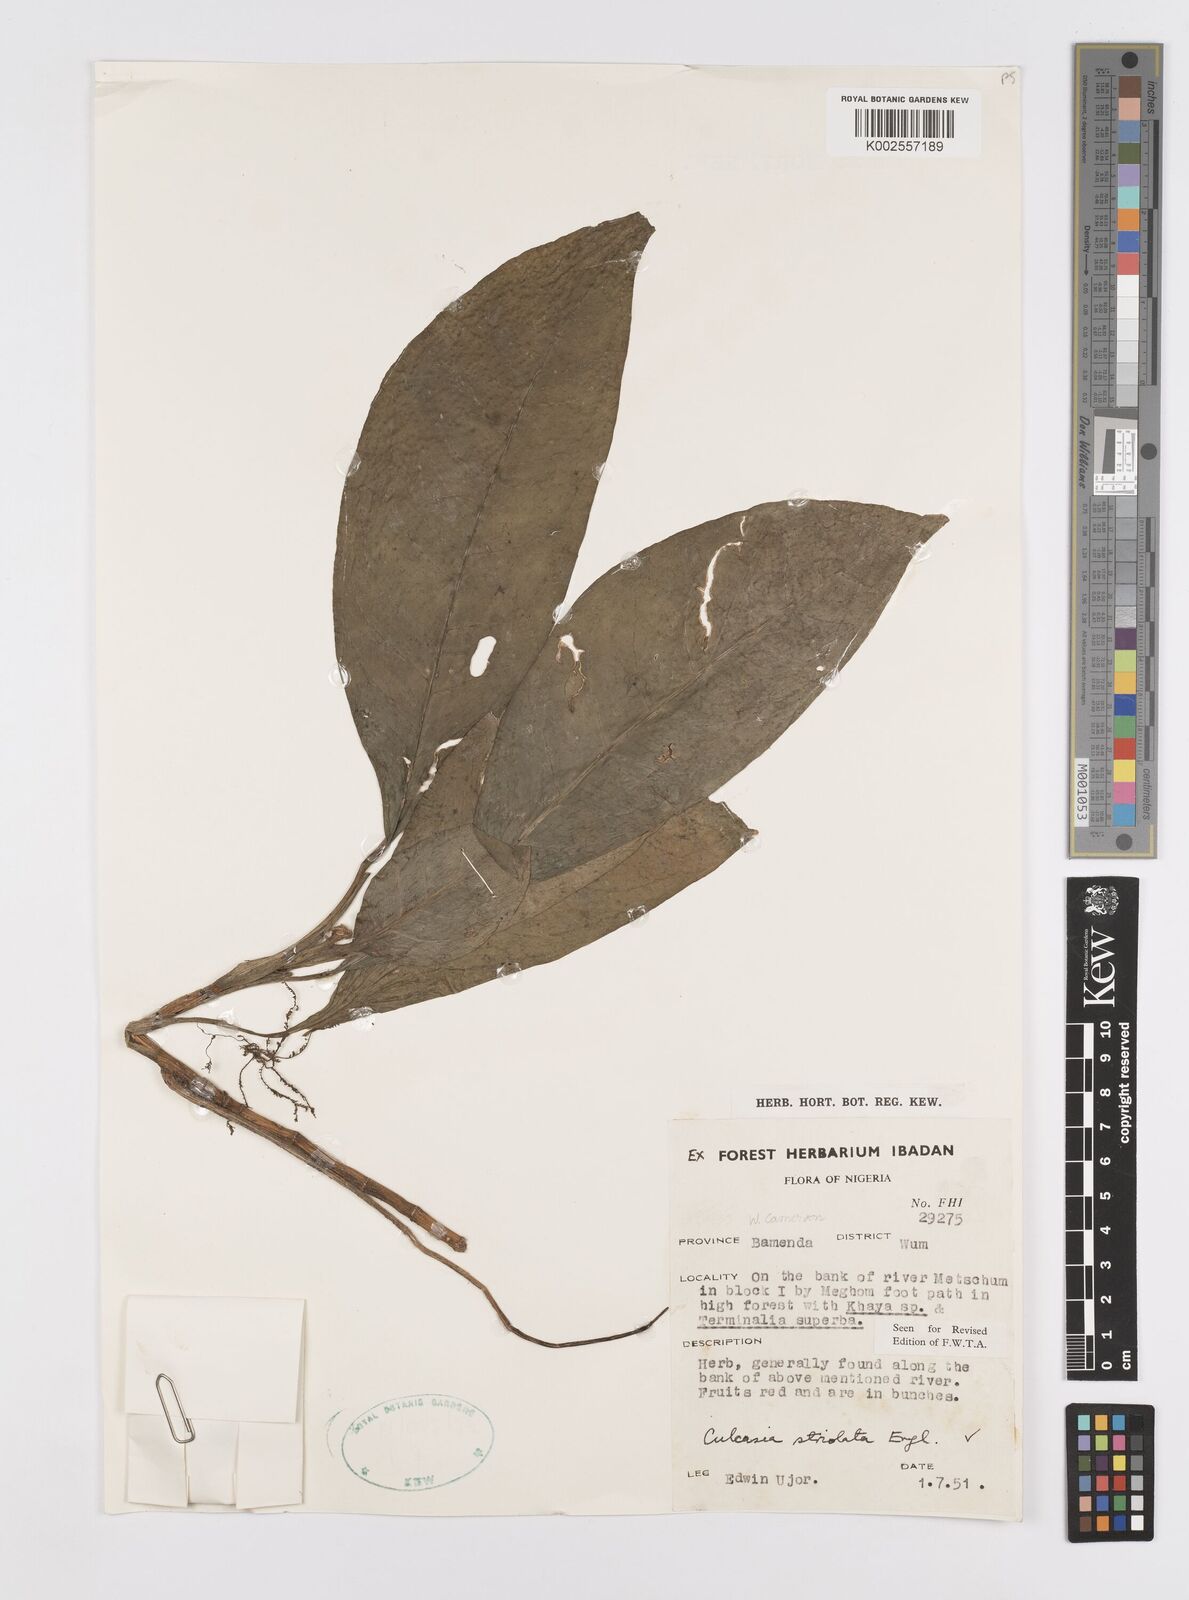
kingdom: Plantae
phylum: Tracheophyta
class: Liliopsida
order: Alismatales
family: Araceae
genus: Culcasia
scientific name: Culcasia striolata
